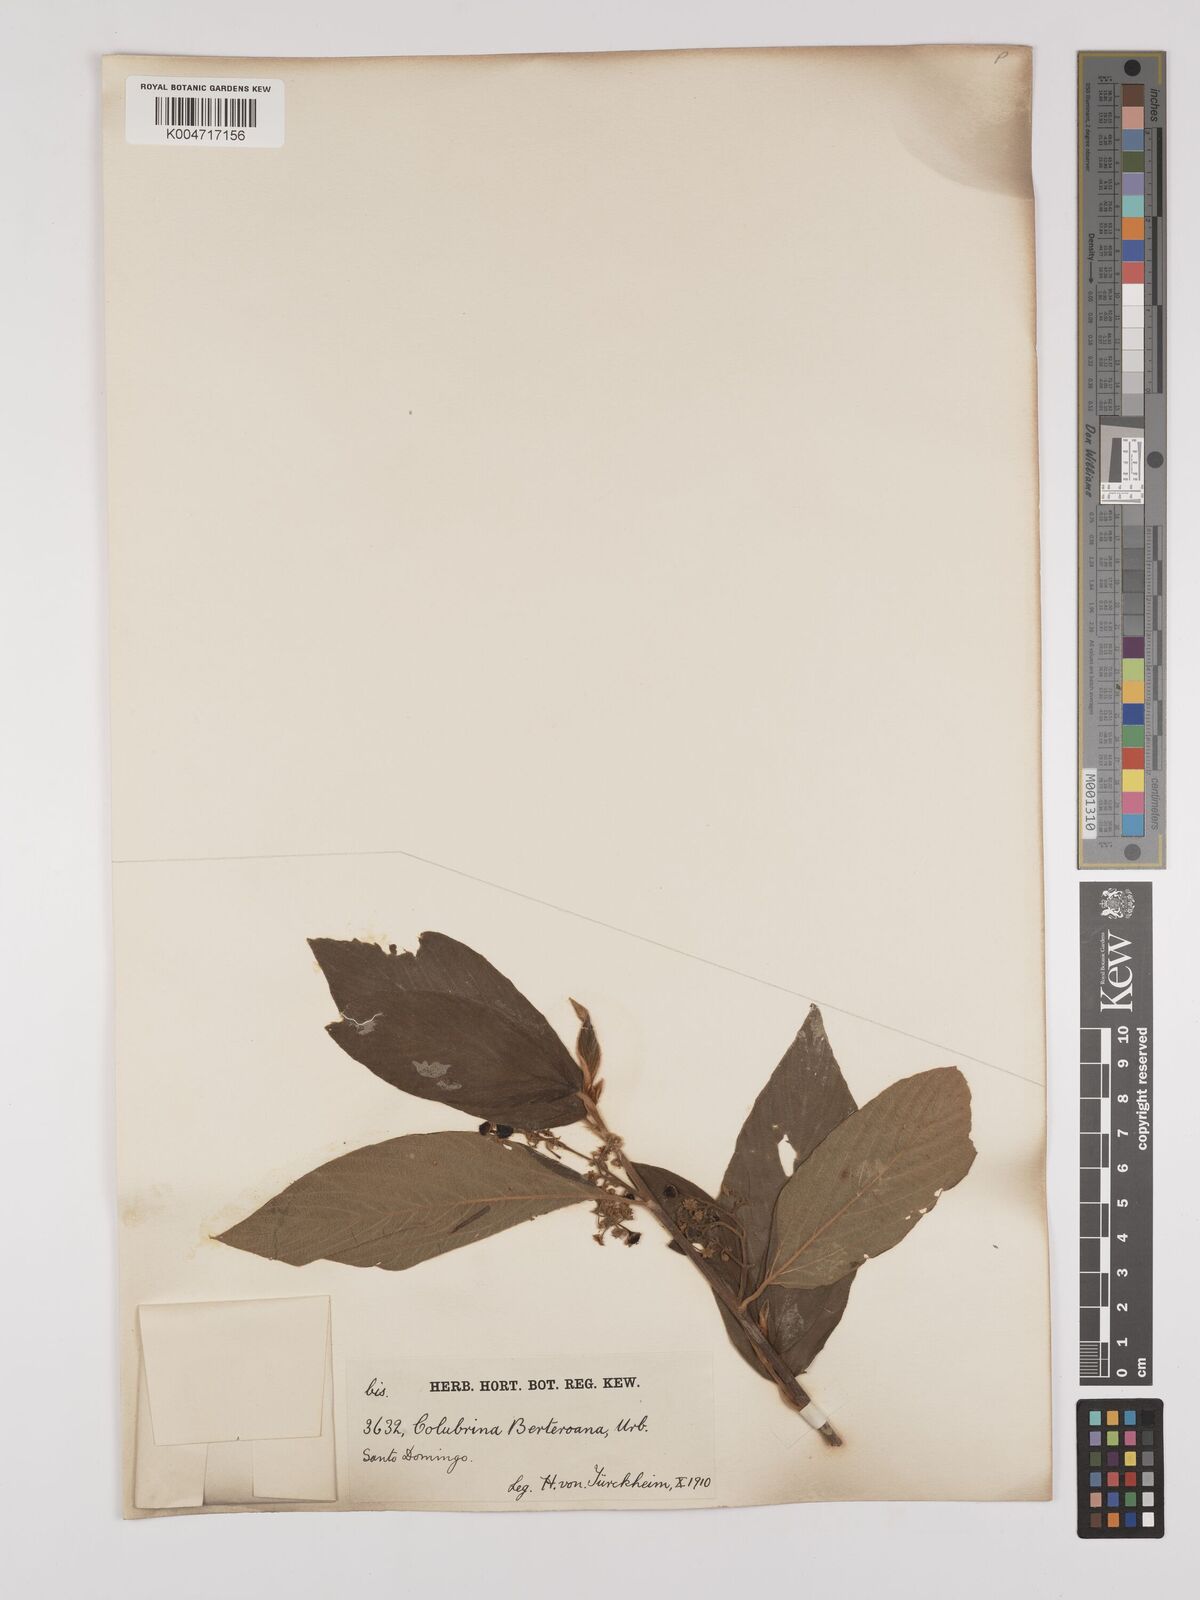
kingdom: Plantae
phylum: Tracheophyta
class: Magnoliopsida
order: Rosales
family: Rhamnaceae
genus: Colubrina
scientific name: Colubrina berteroana
